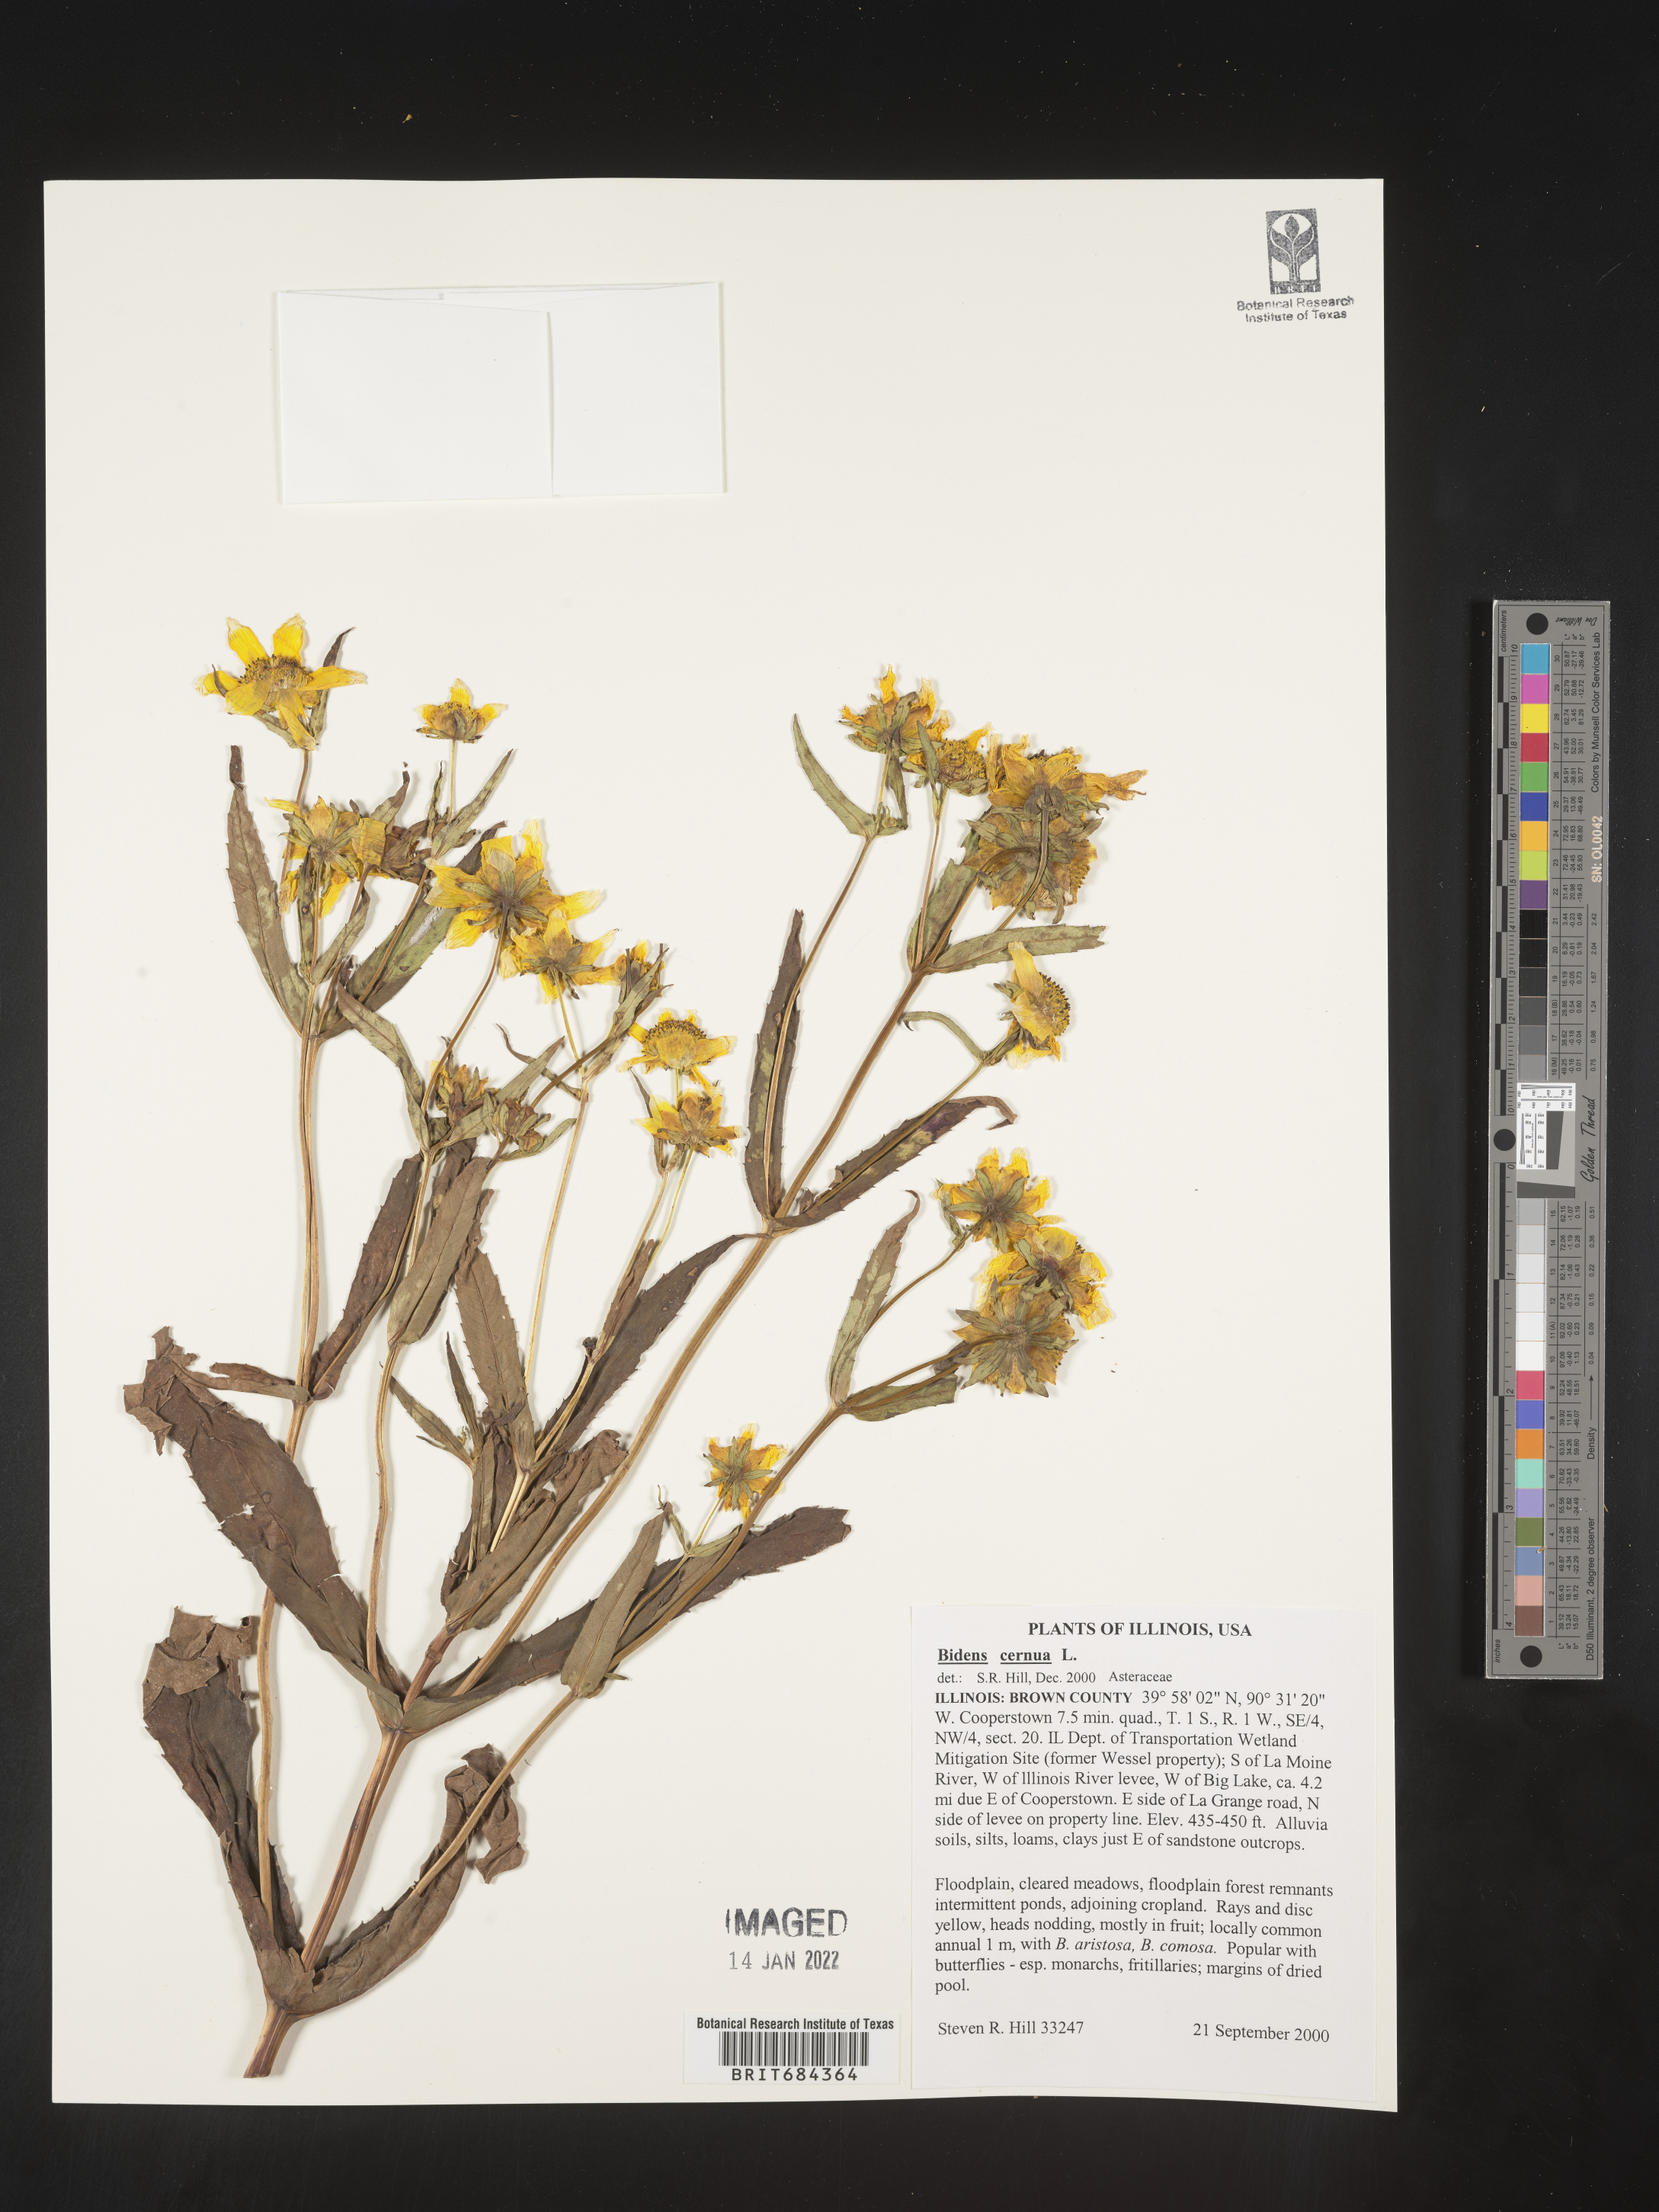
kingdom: Plantae
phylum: Tracheophyta
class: Magnoliopsida
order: Asterales
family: Asteraceae
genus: Bidens
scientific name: Bidens cernua
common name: Nodding bur-marigold
